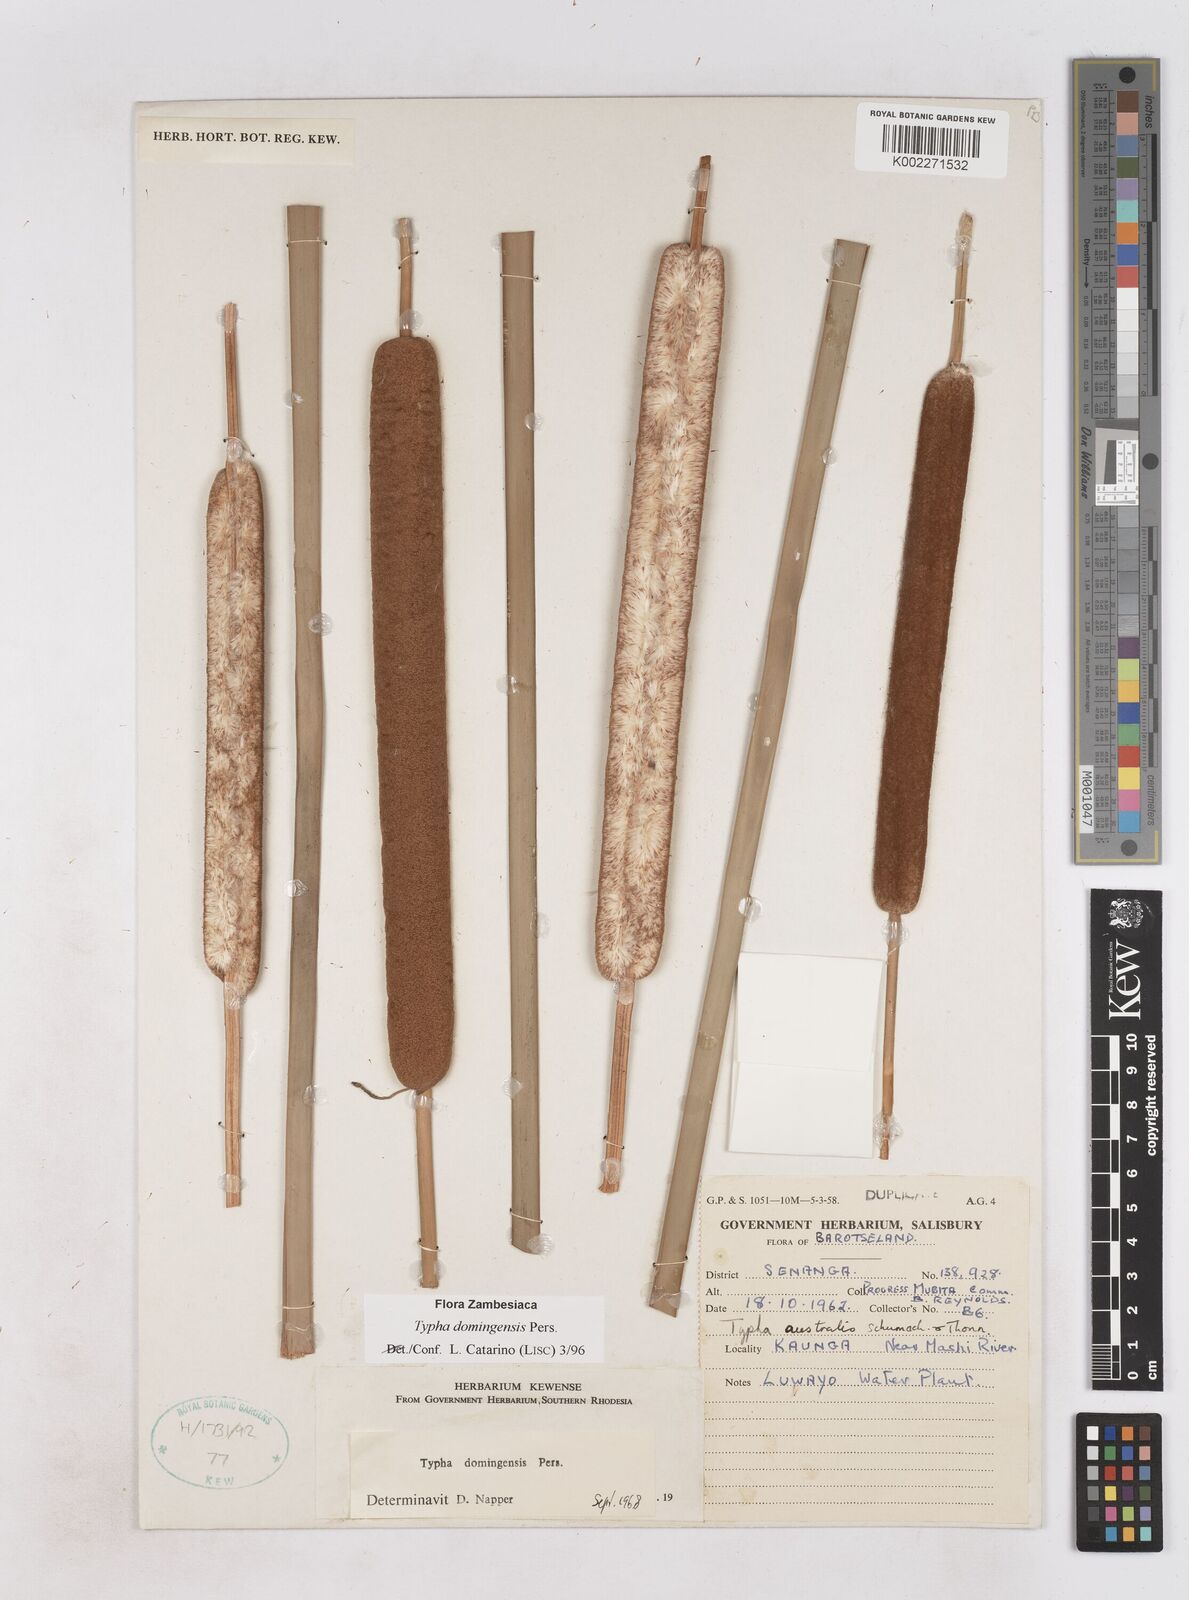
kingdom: Plantae
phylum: Tracheophyta
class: Liliopsida
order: Poales
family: Typhaceae
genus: Typha
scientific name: Typha domingensis
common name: Southern cattail
